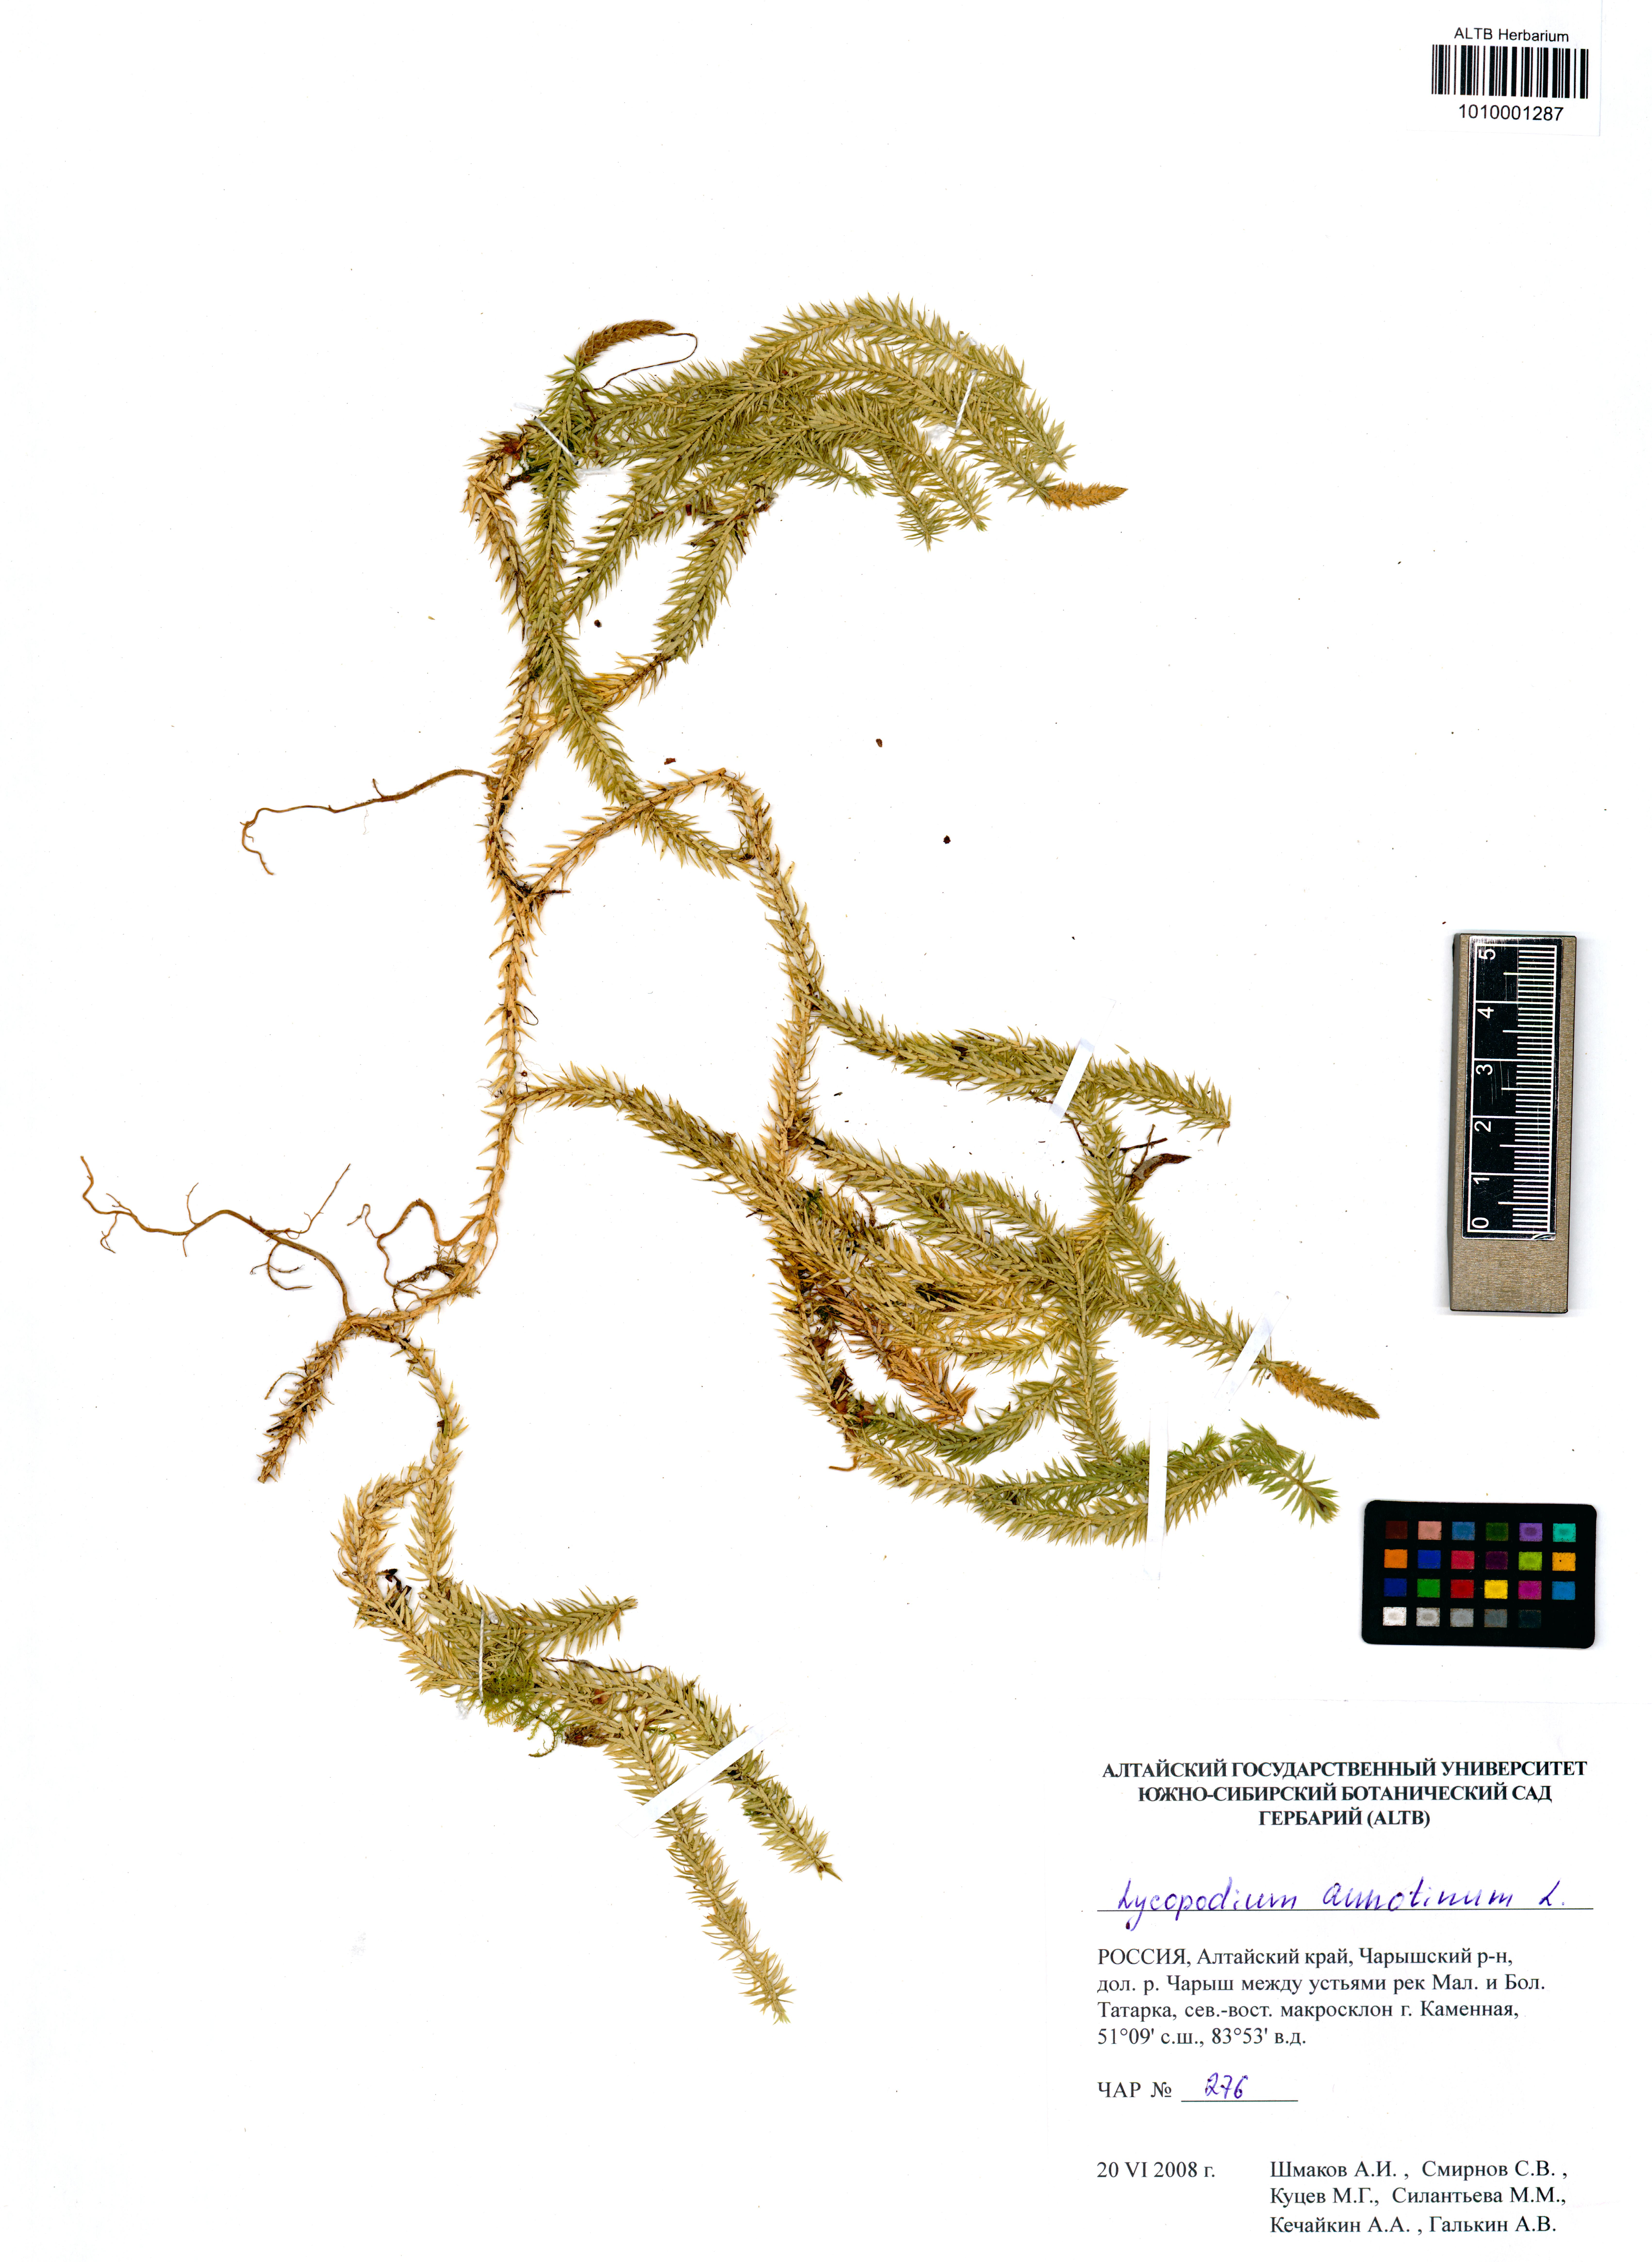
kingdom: Plantae
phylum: Tracheophyta
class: Lycopodiopsida
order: Lycopodiales
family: Lycopodiaceae
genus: Spinulum
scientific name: Spinulum annotinum
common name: Interrupted club-moss
